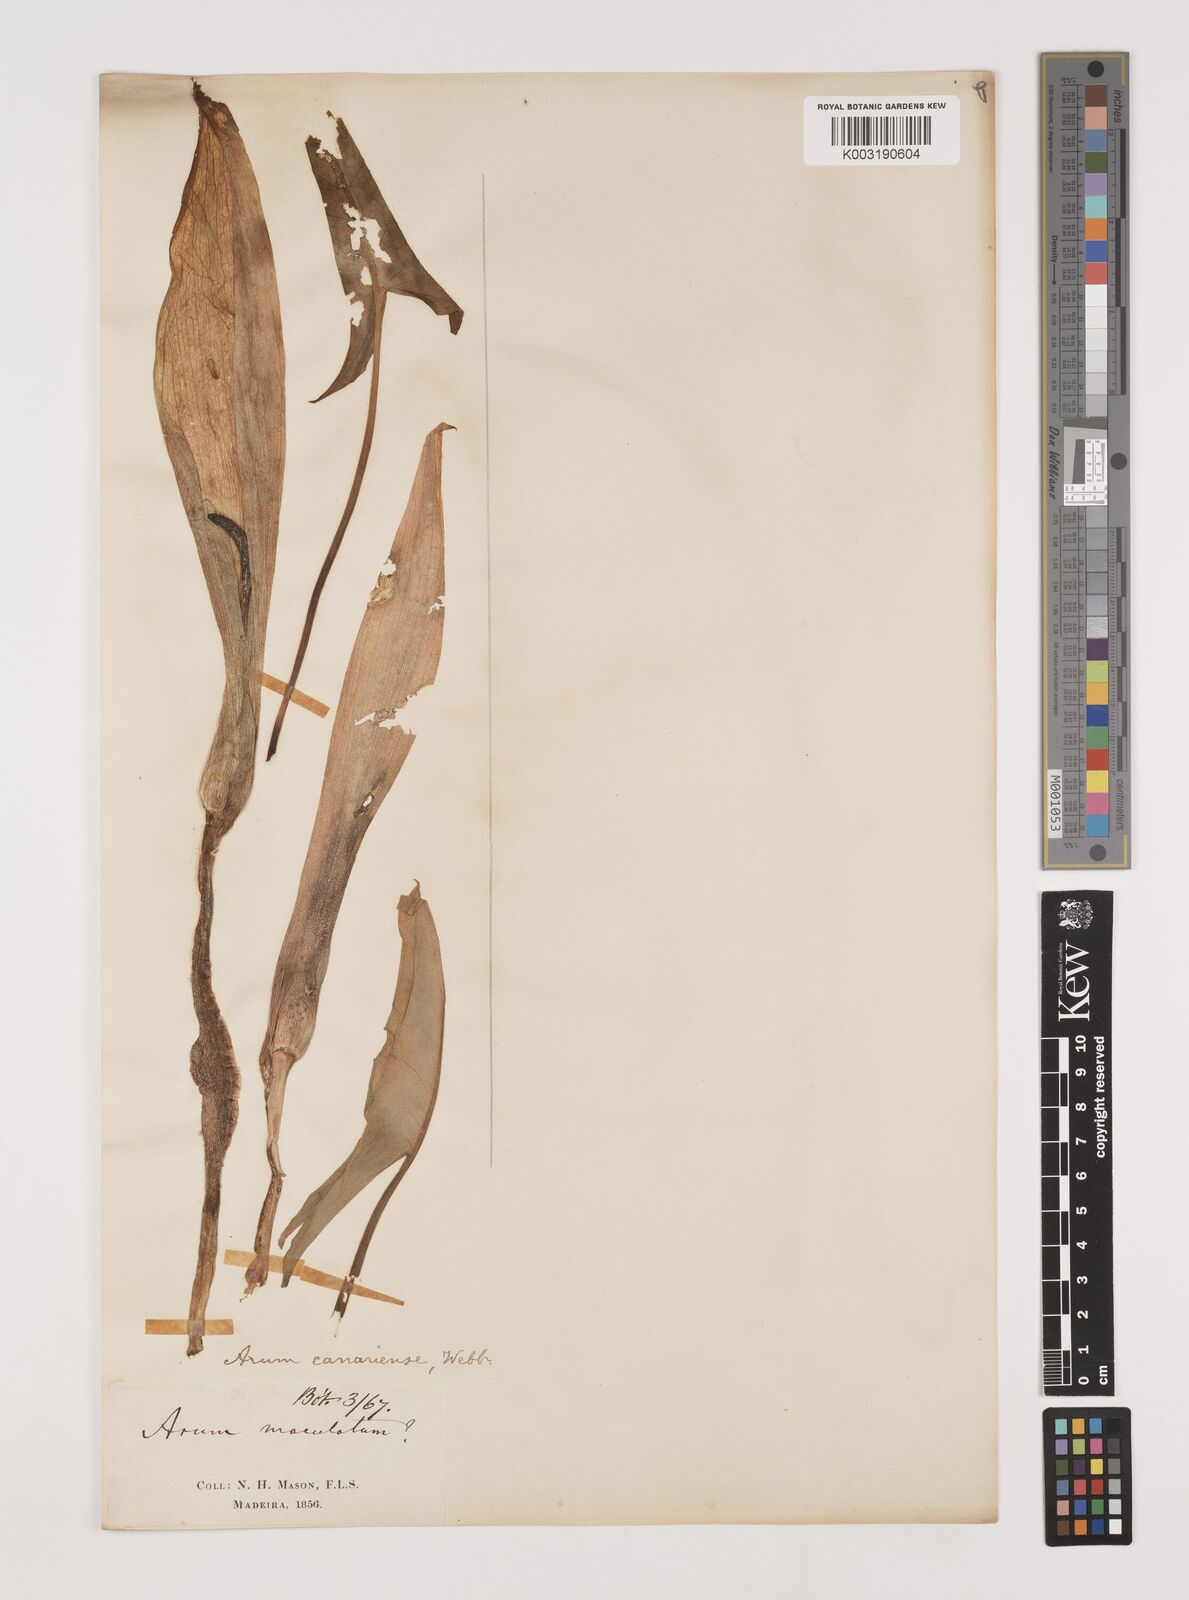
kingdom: Plantae
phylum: Tracheophyta
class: Liliopsida
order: Alismatales
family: Araceae
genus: Arum
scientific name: Arum italicum
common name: Italian lords-and-ladies
